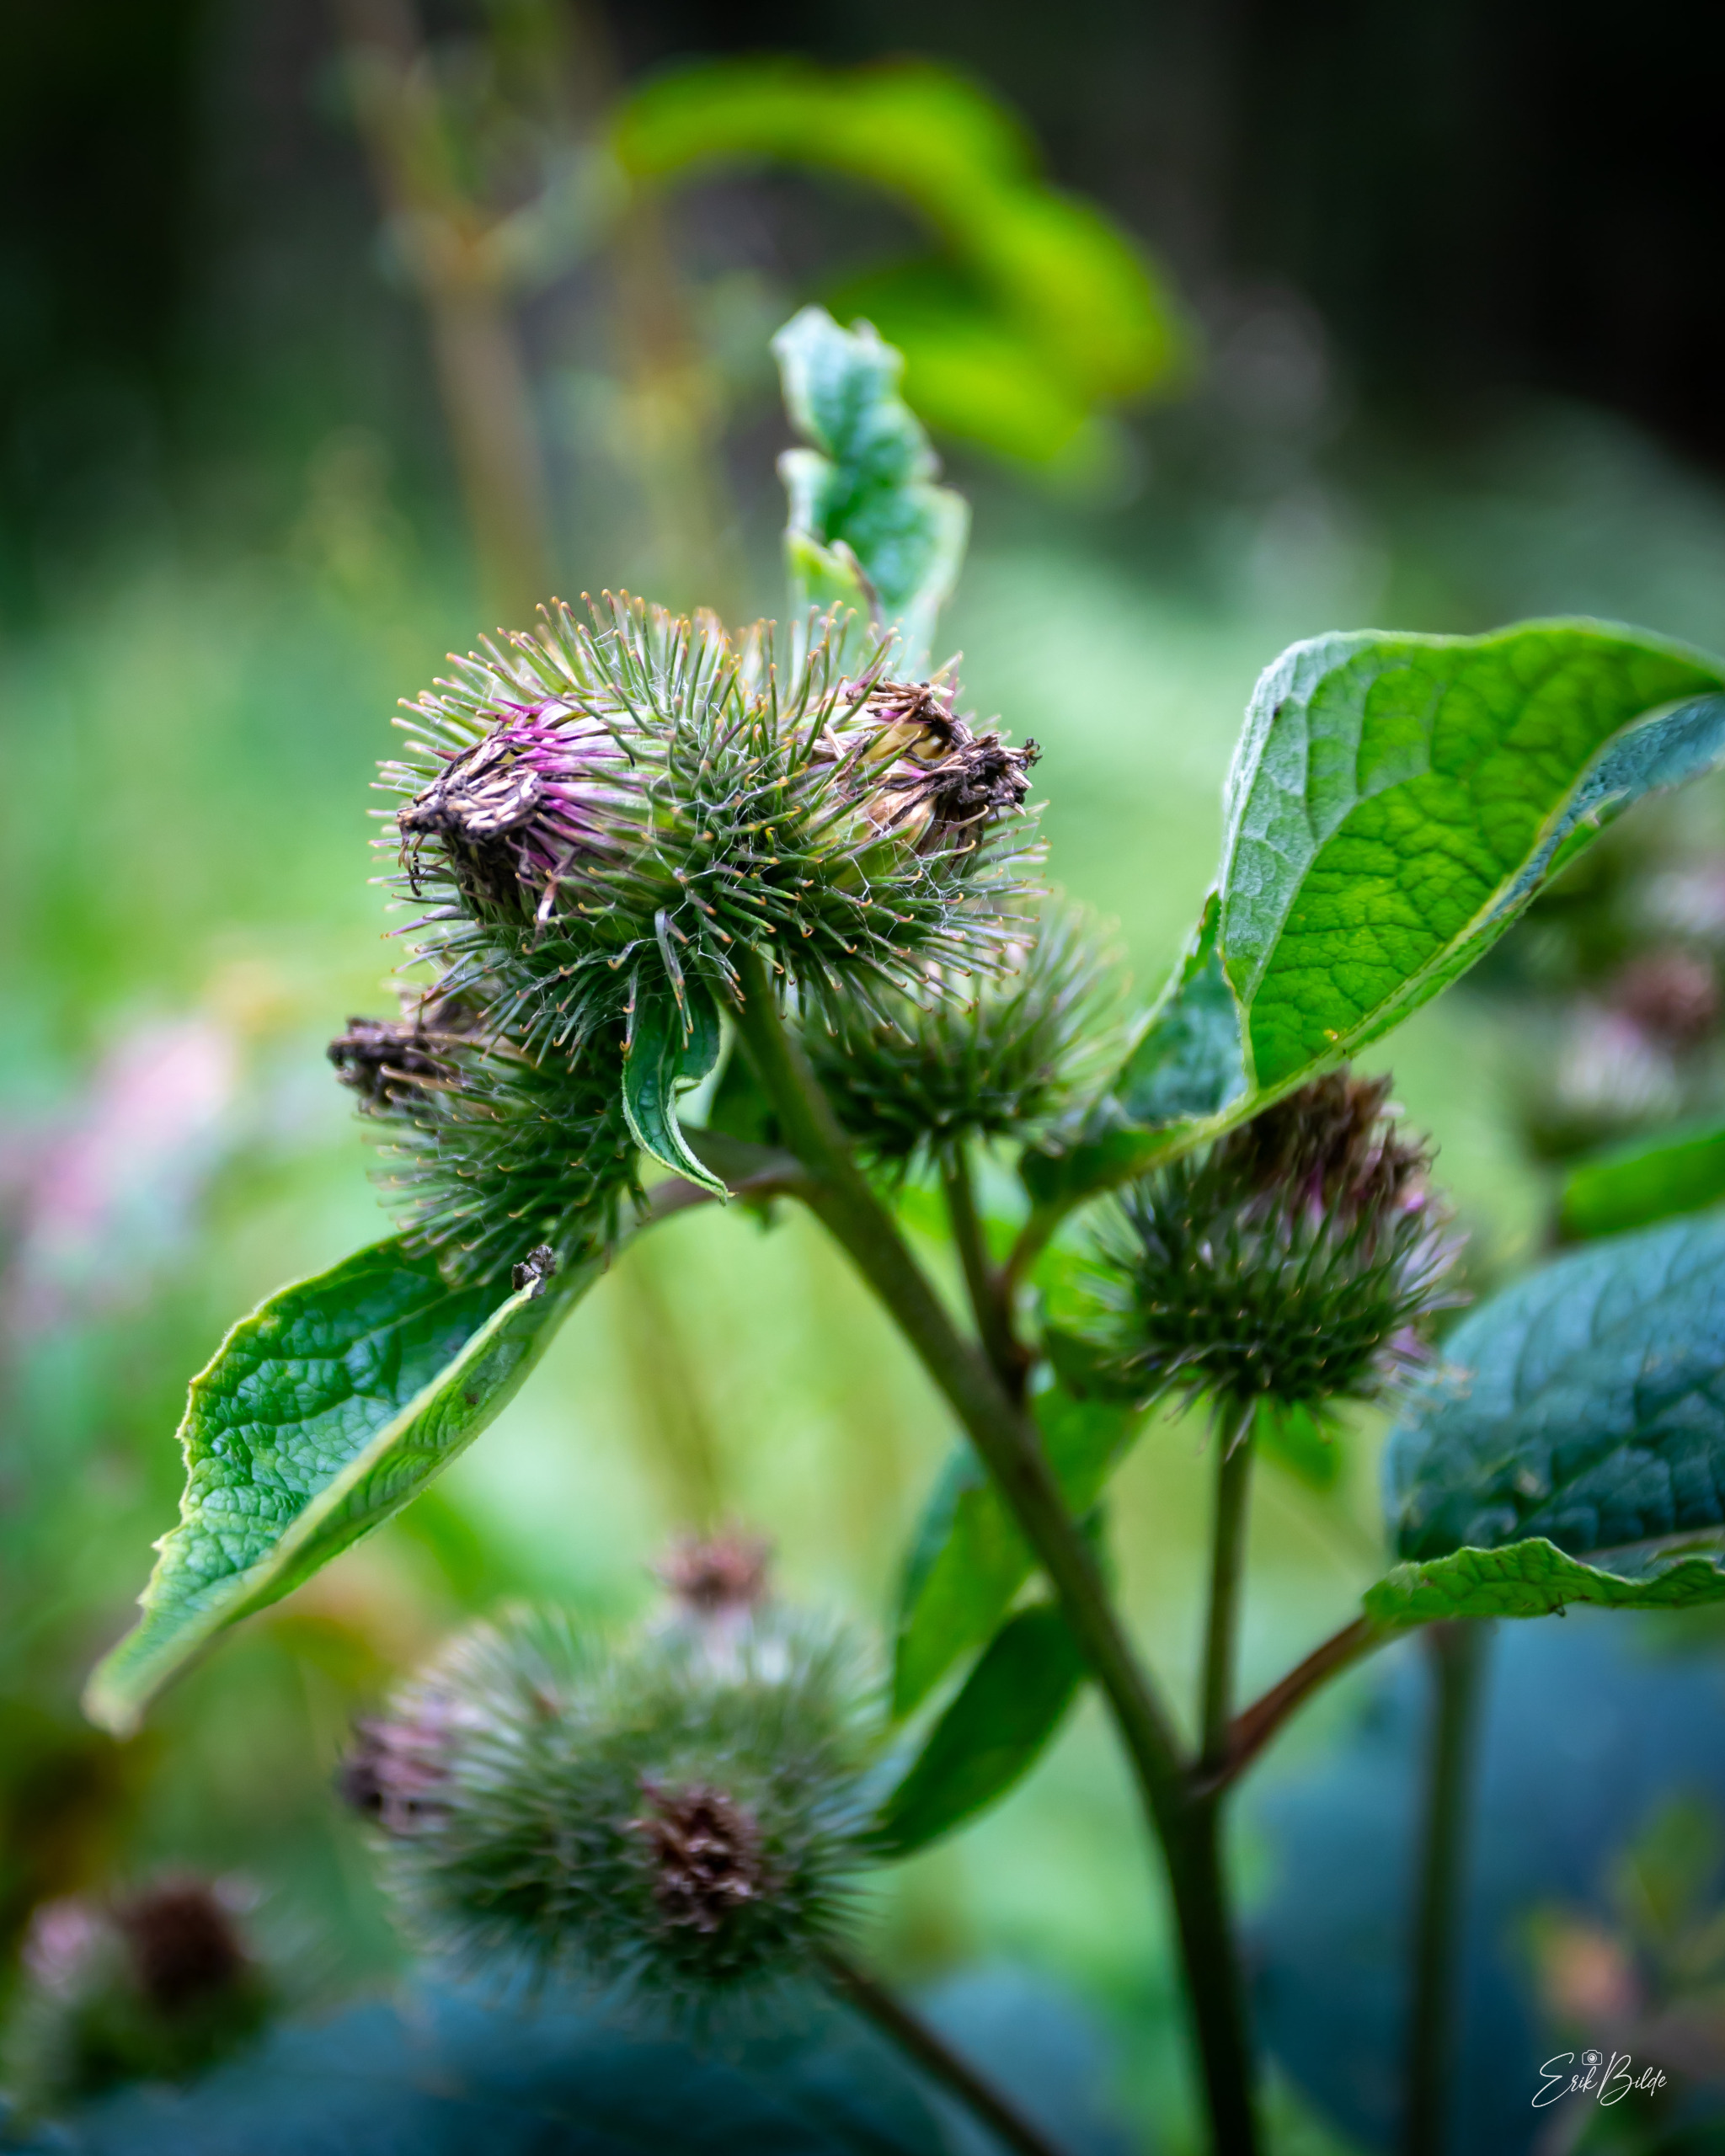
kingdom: Plantae
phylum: Tracheophyta
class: Magnoliopsida
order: Asterales
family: Asteraceae
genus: Arctium
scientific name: Arctium nemorosum
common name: Skov-burre
